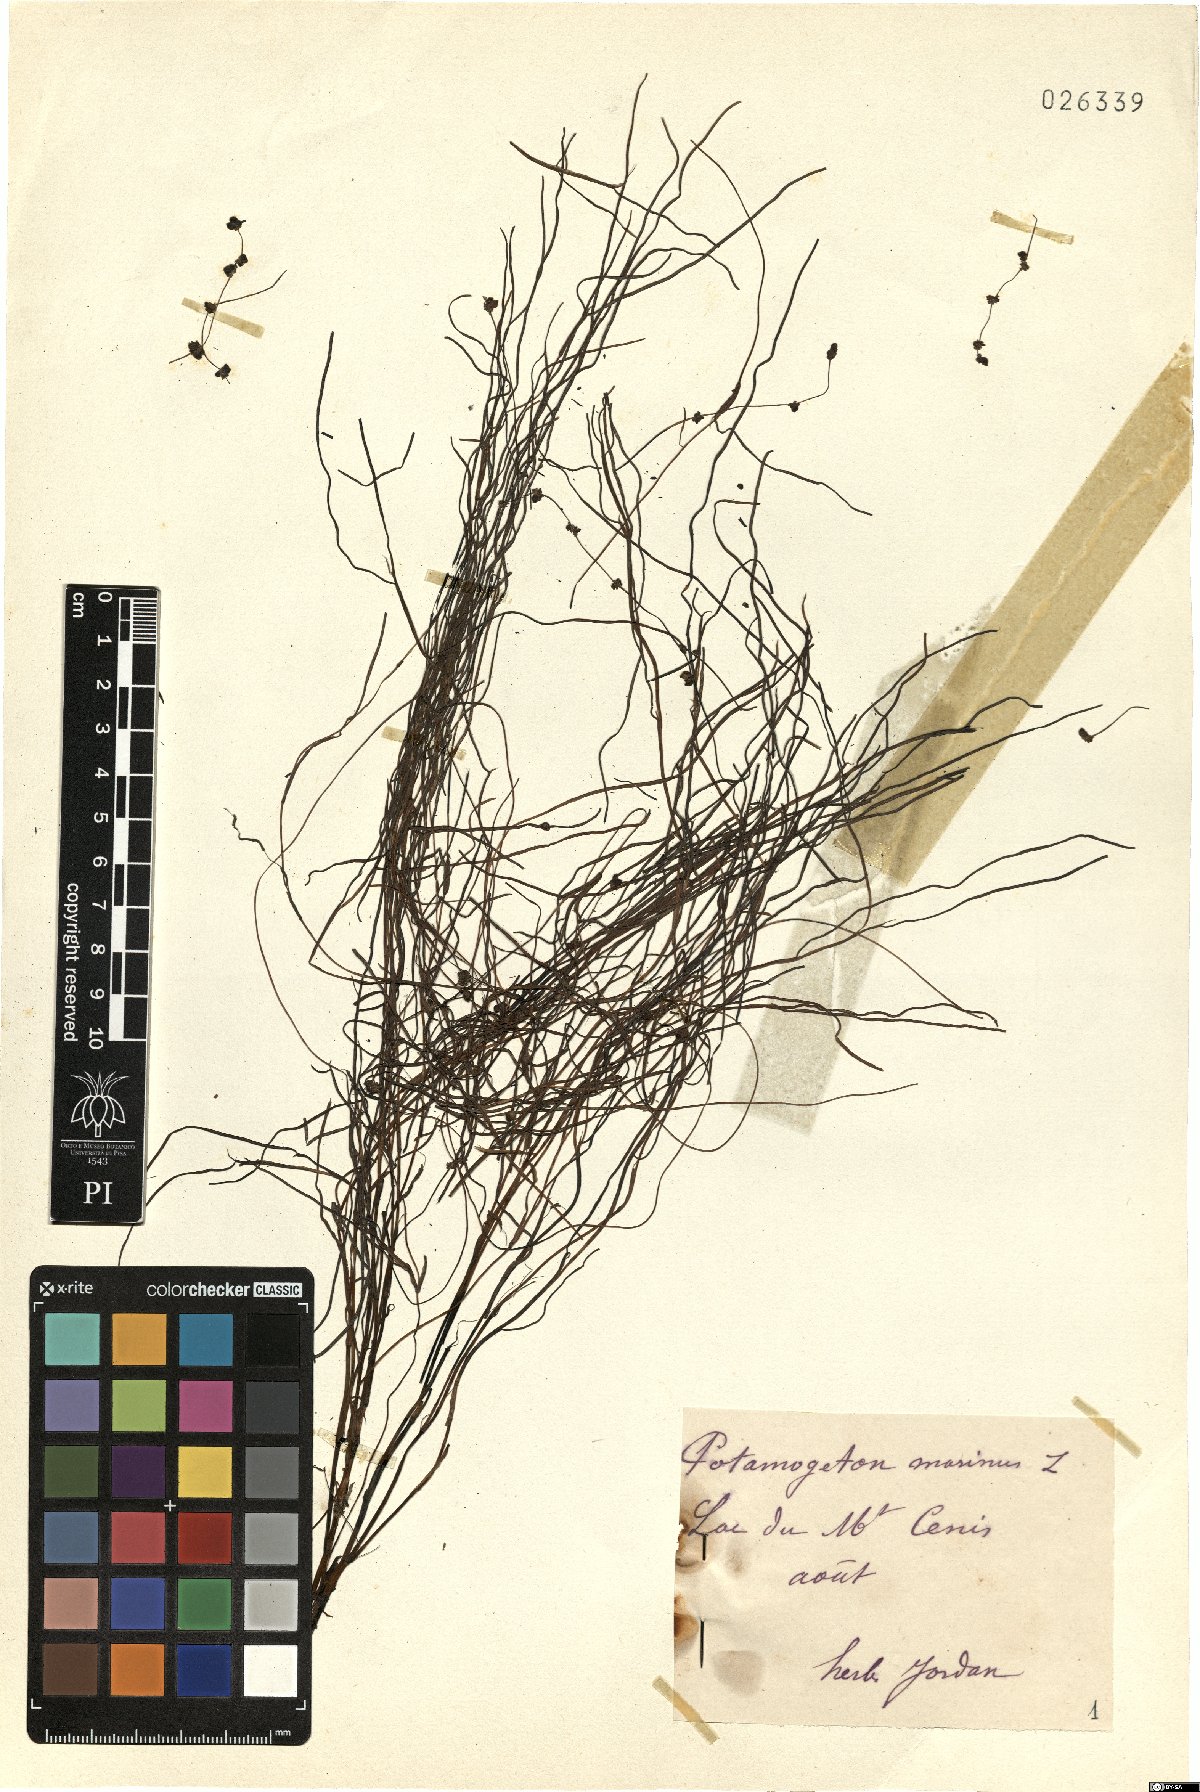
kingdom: Plantae
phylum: Tracheophyta
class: Liliopsida
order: Alismatales
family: Potamogetonaceae
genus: Stuckenia
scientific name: Stuckenia pectinata
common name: Sago pondweed
